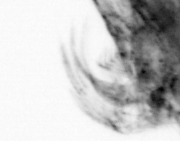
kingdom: Animalia
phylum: Arthropoda
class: Copepoda
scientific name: Copepoda
